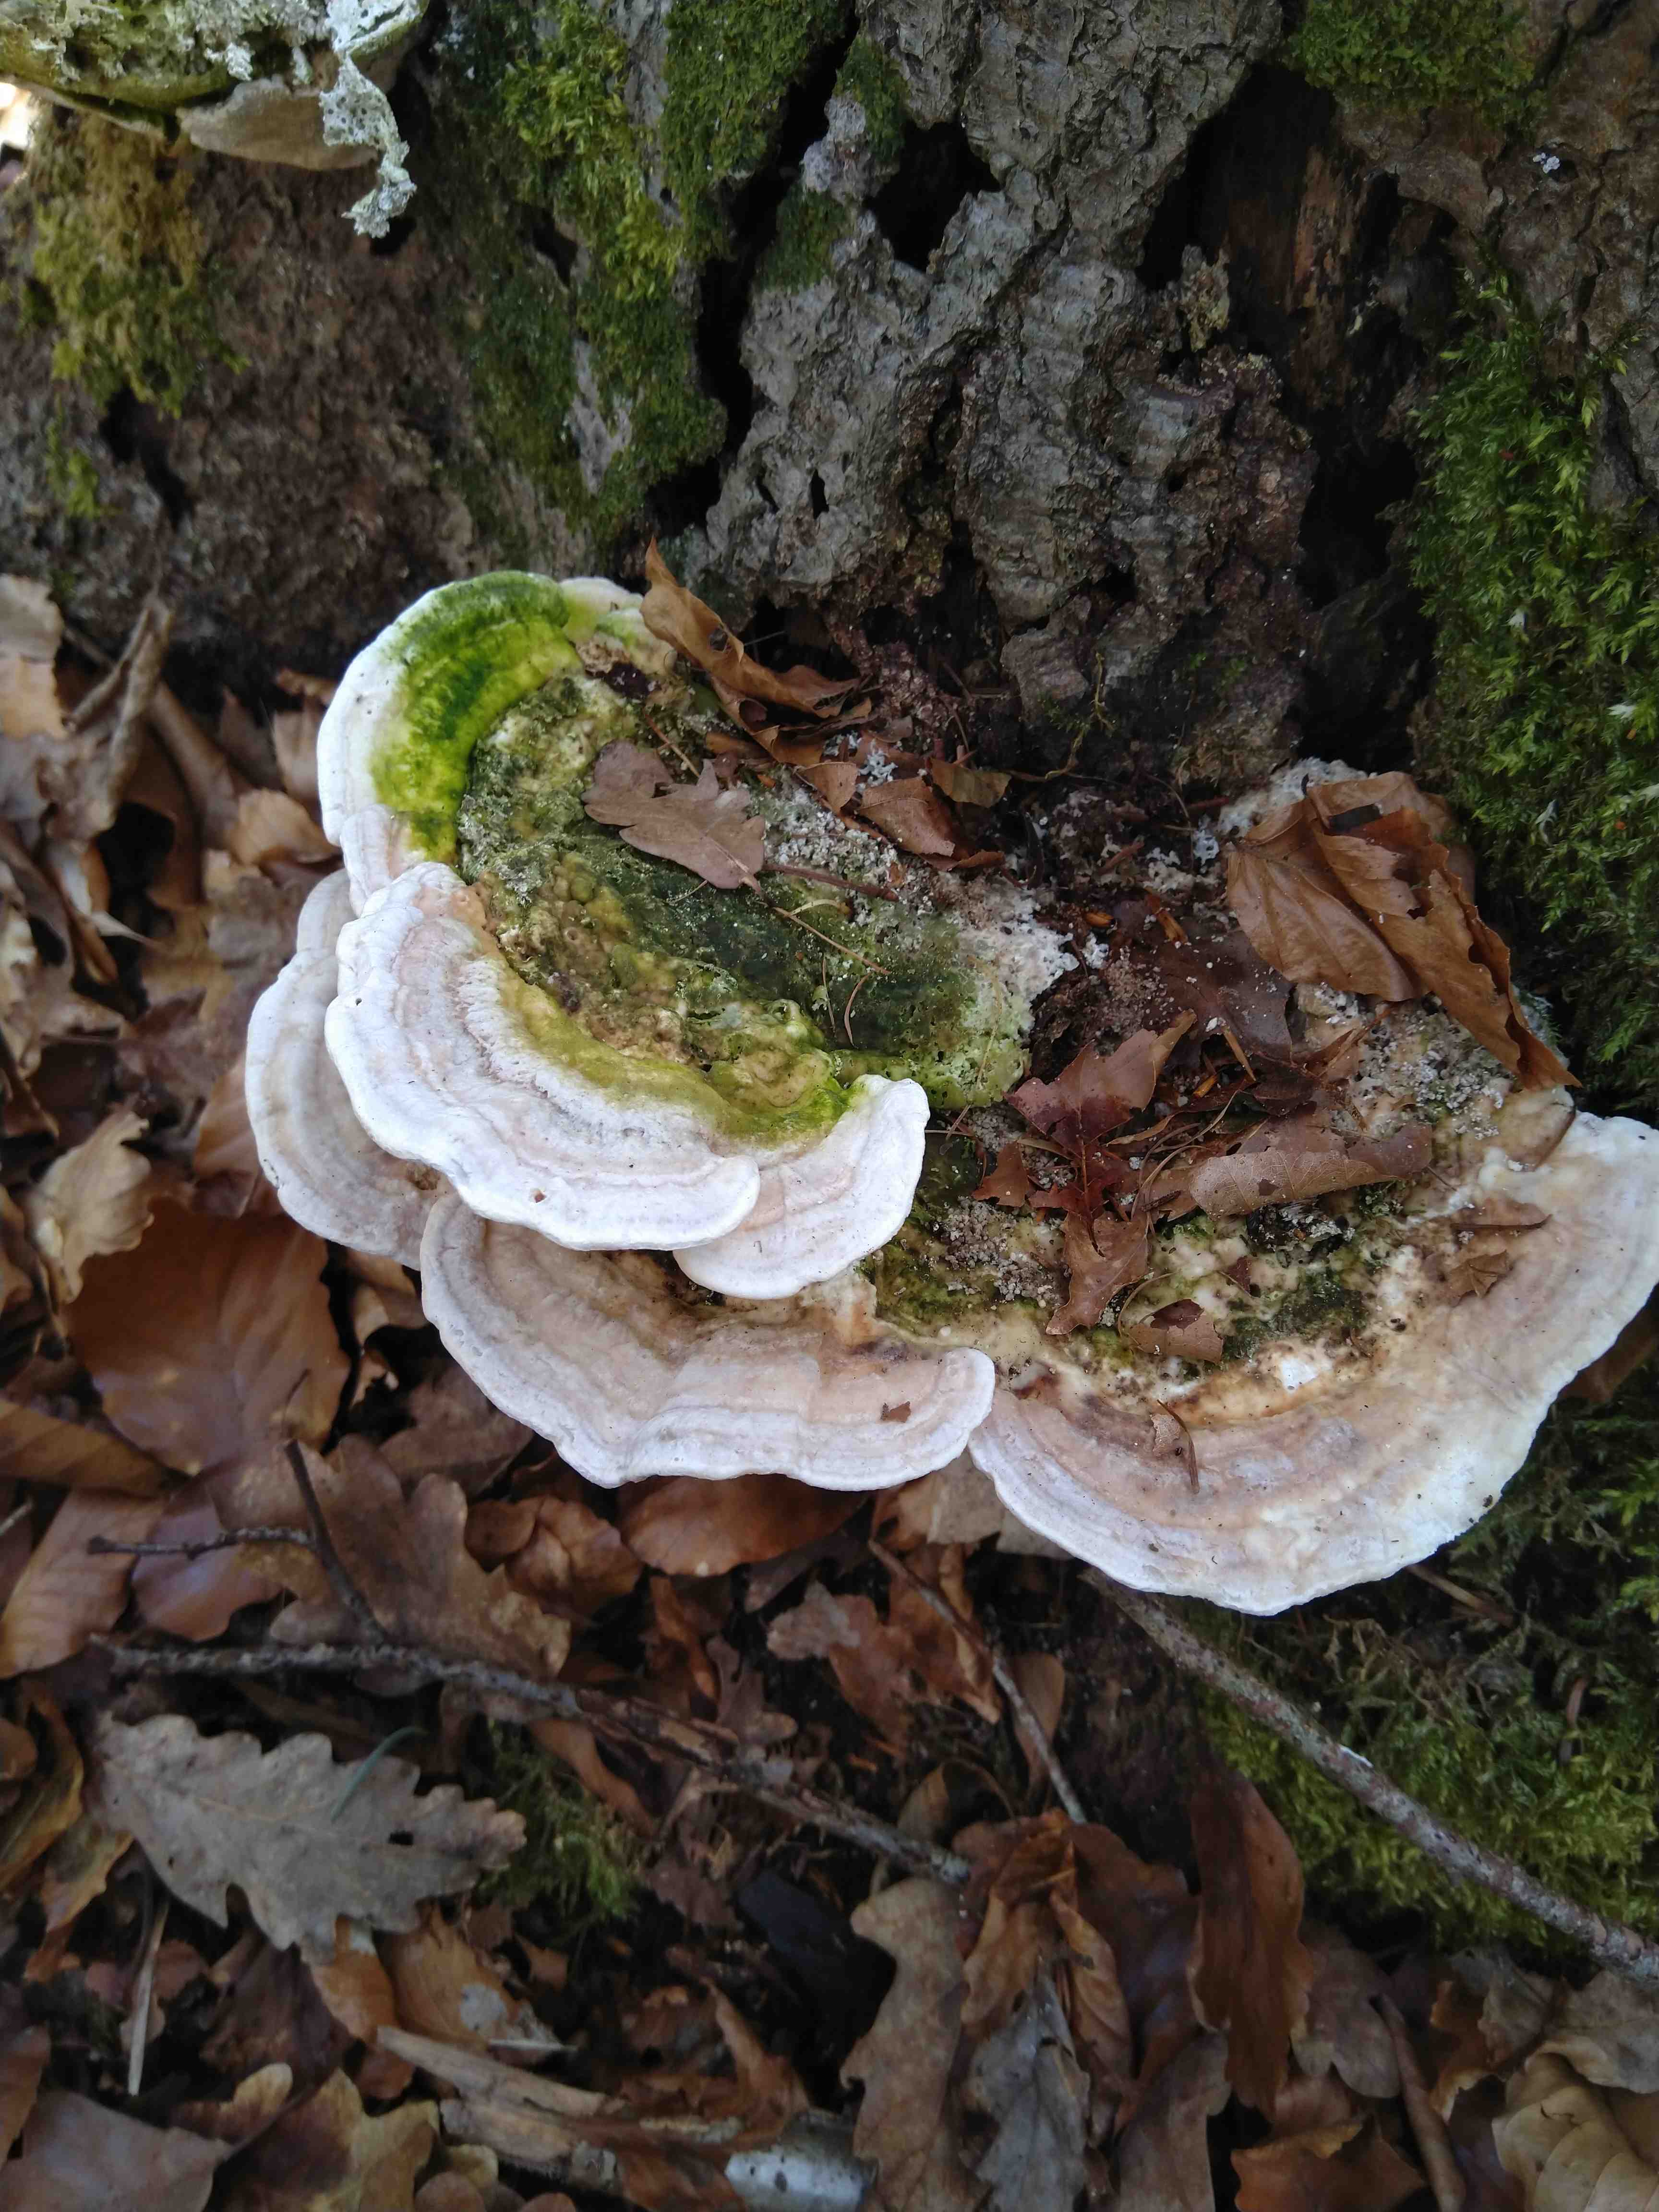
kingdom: Fungi
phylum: Basidiomycota
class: Agaricomycetes
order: Polyporales
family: Polyporaceae
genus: Trametes
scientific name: Trametes gibbosa
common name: puklet læderporesvamp
